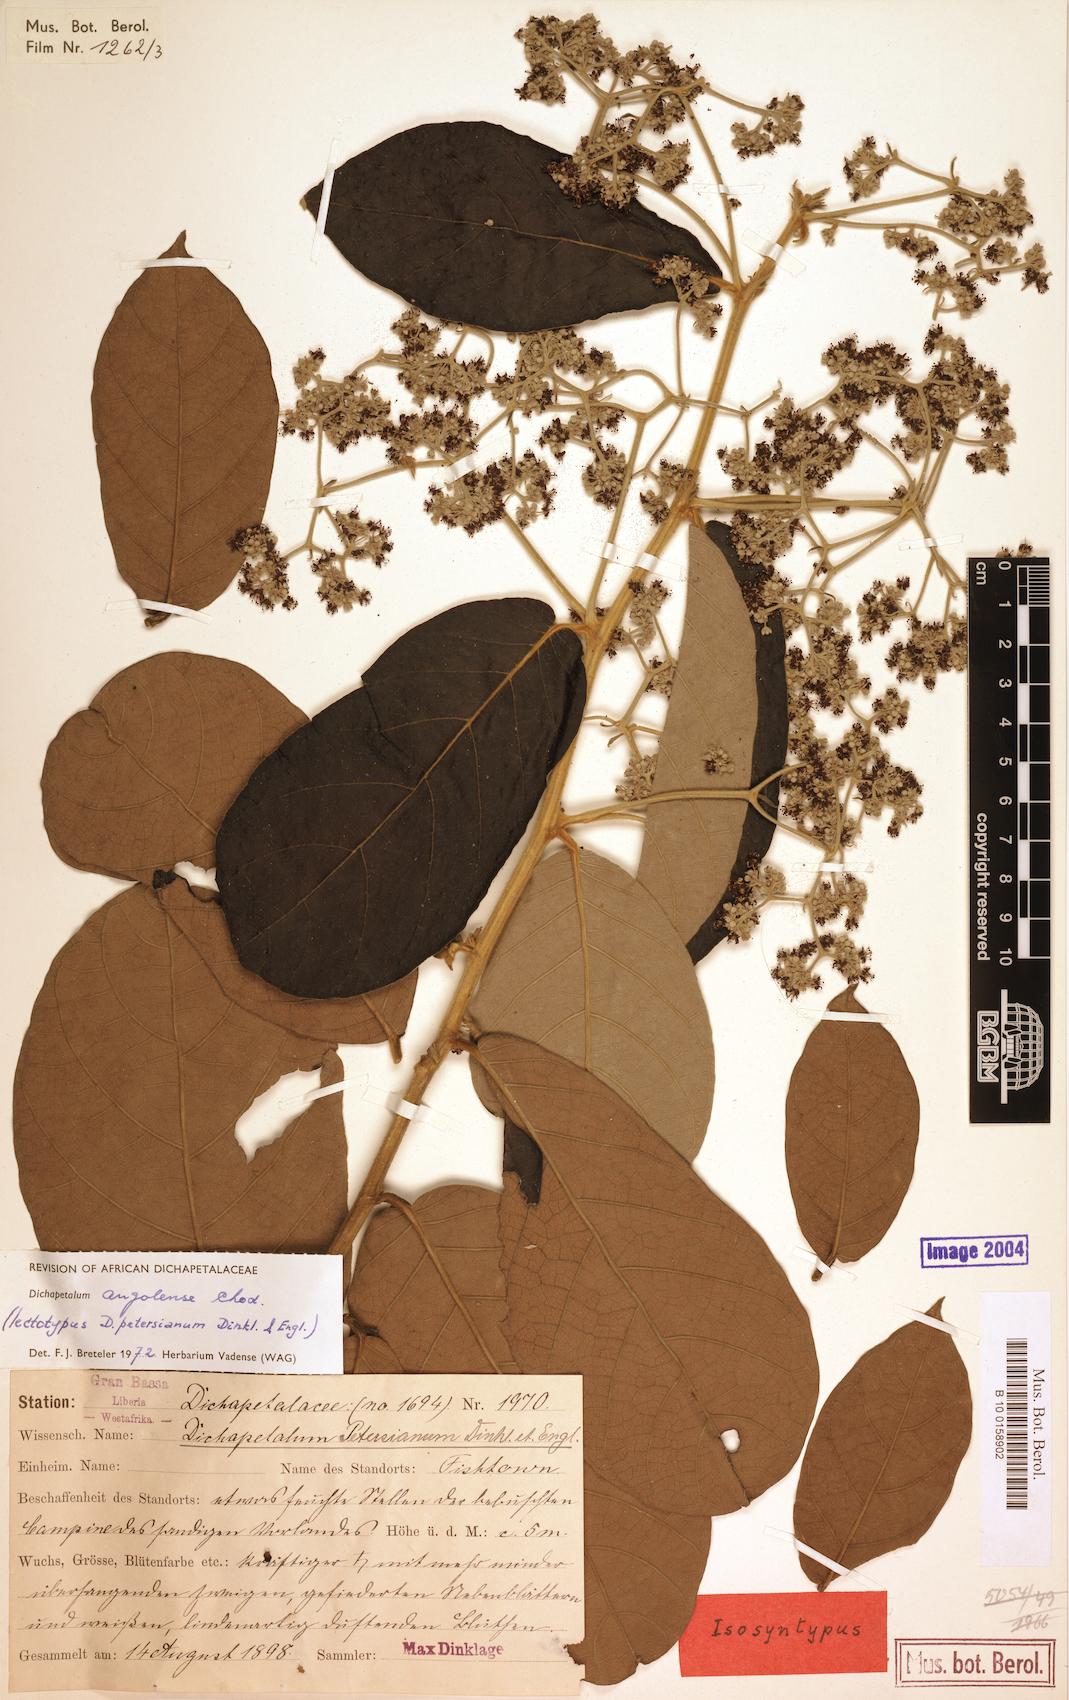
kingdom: Plantae
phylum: Tracheophyta
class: Magnoliopsida
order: Malpighiales
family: Dichapetalaceae
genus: Dichapetalum
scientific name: Dichapetalum angolense
